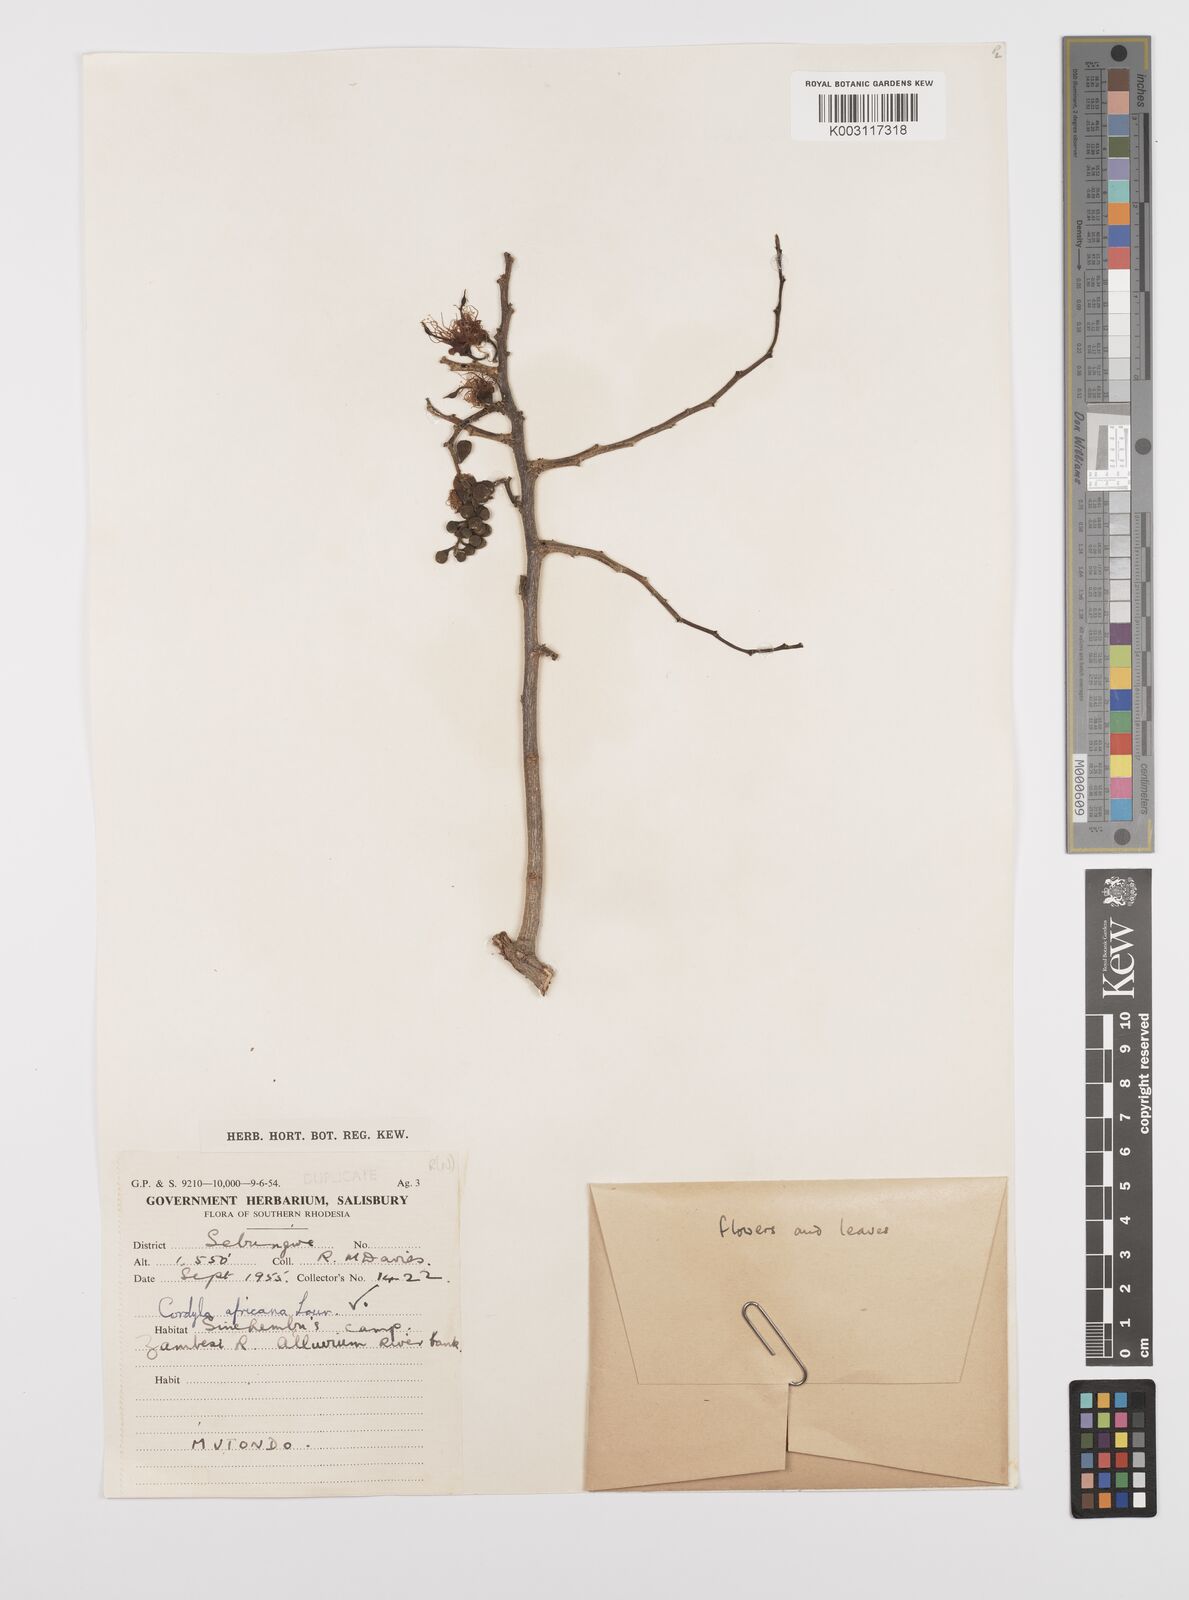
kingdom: Plantae
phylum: Tracheophyta
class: Magnoliopsida
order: Fabales
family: Fabaceae
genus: Cordyla
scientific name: Cordyla africana
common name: Wild mango
